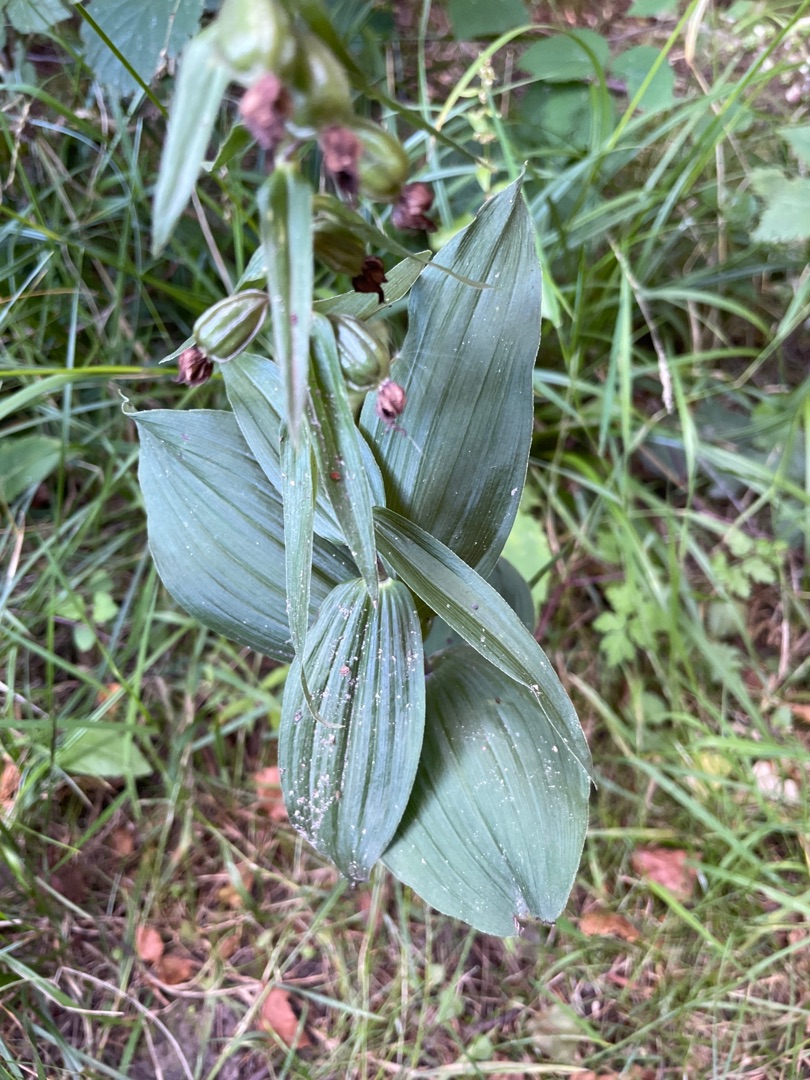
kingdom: Plantae
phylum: Tracheophyta
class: Liliopsida
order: Asparagales
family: Orchidaceae
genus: Epipactis
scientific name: Epipactis helleborine
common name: Skov-hullæbe
